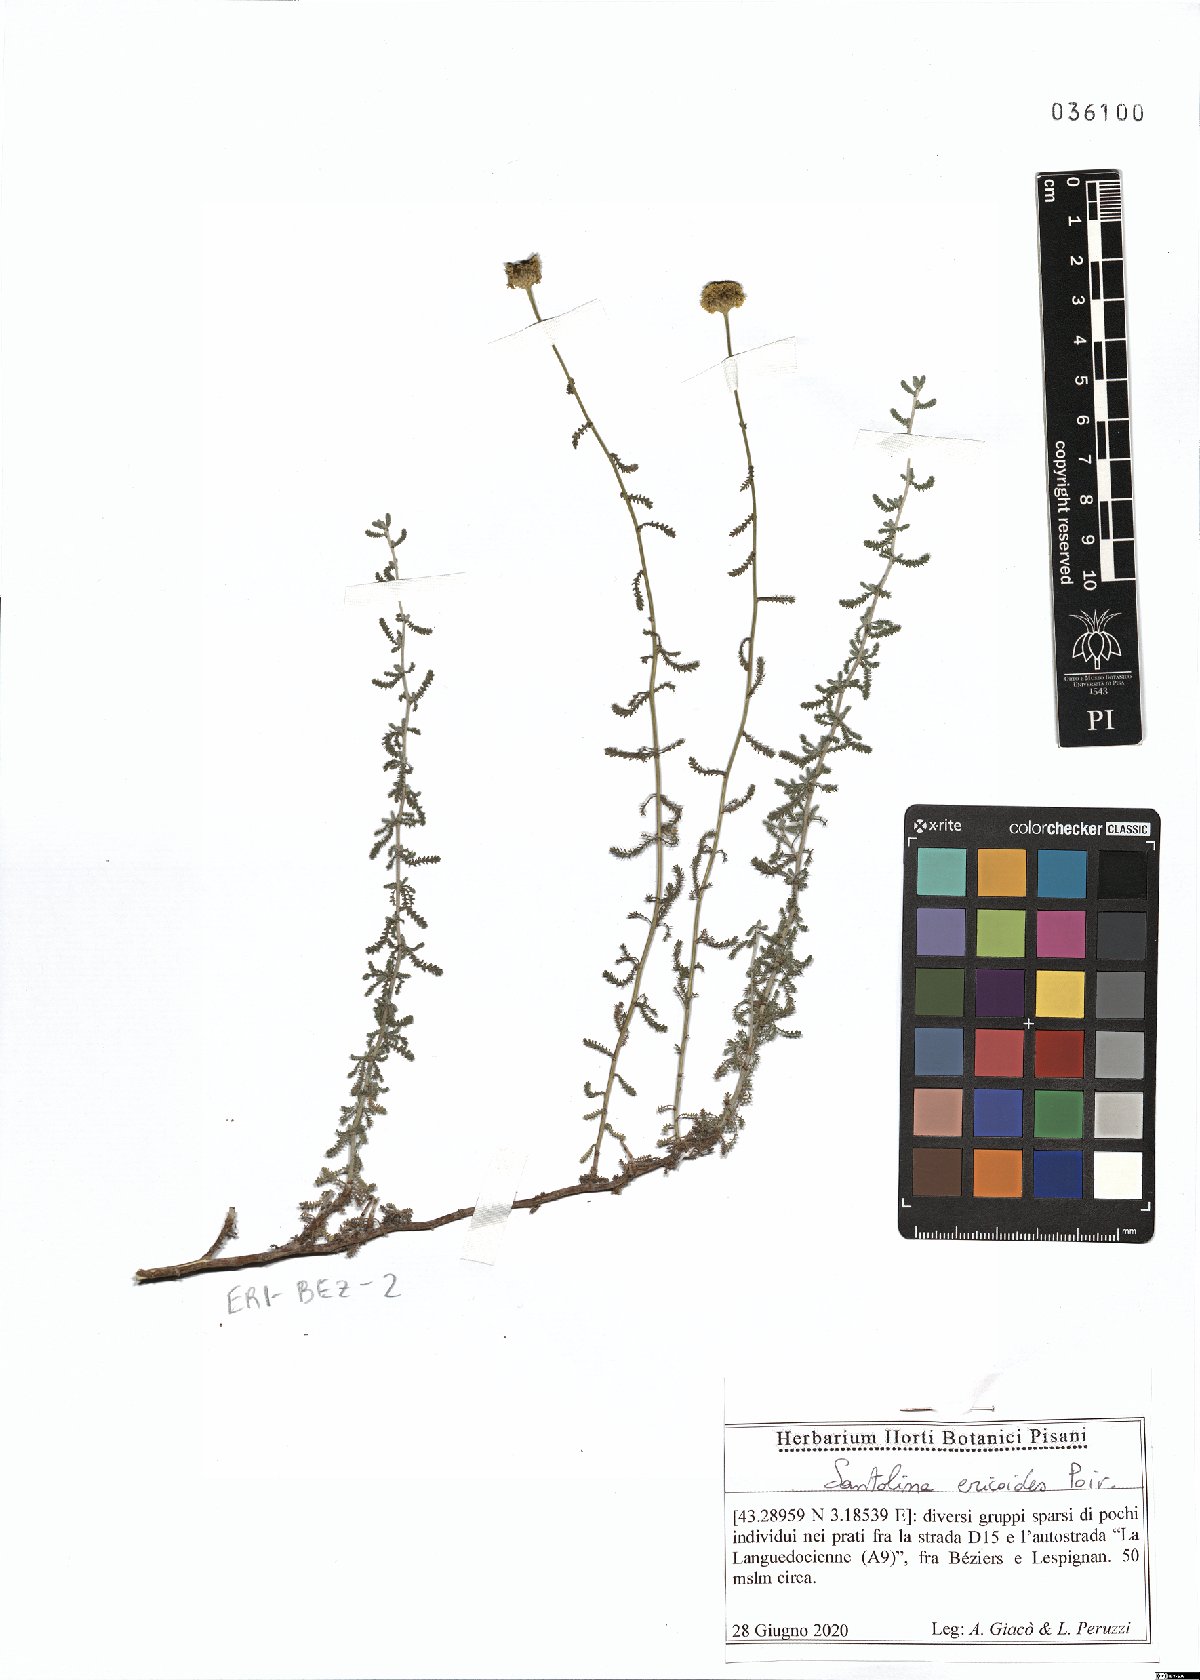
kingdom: Plantae
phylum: Tracheophyta
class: Magnoliopsida
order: Asterales
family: Asteraceae
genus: Santolina
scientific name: Santolina ericoides
